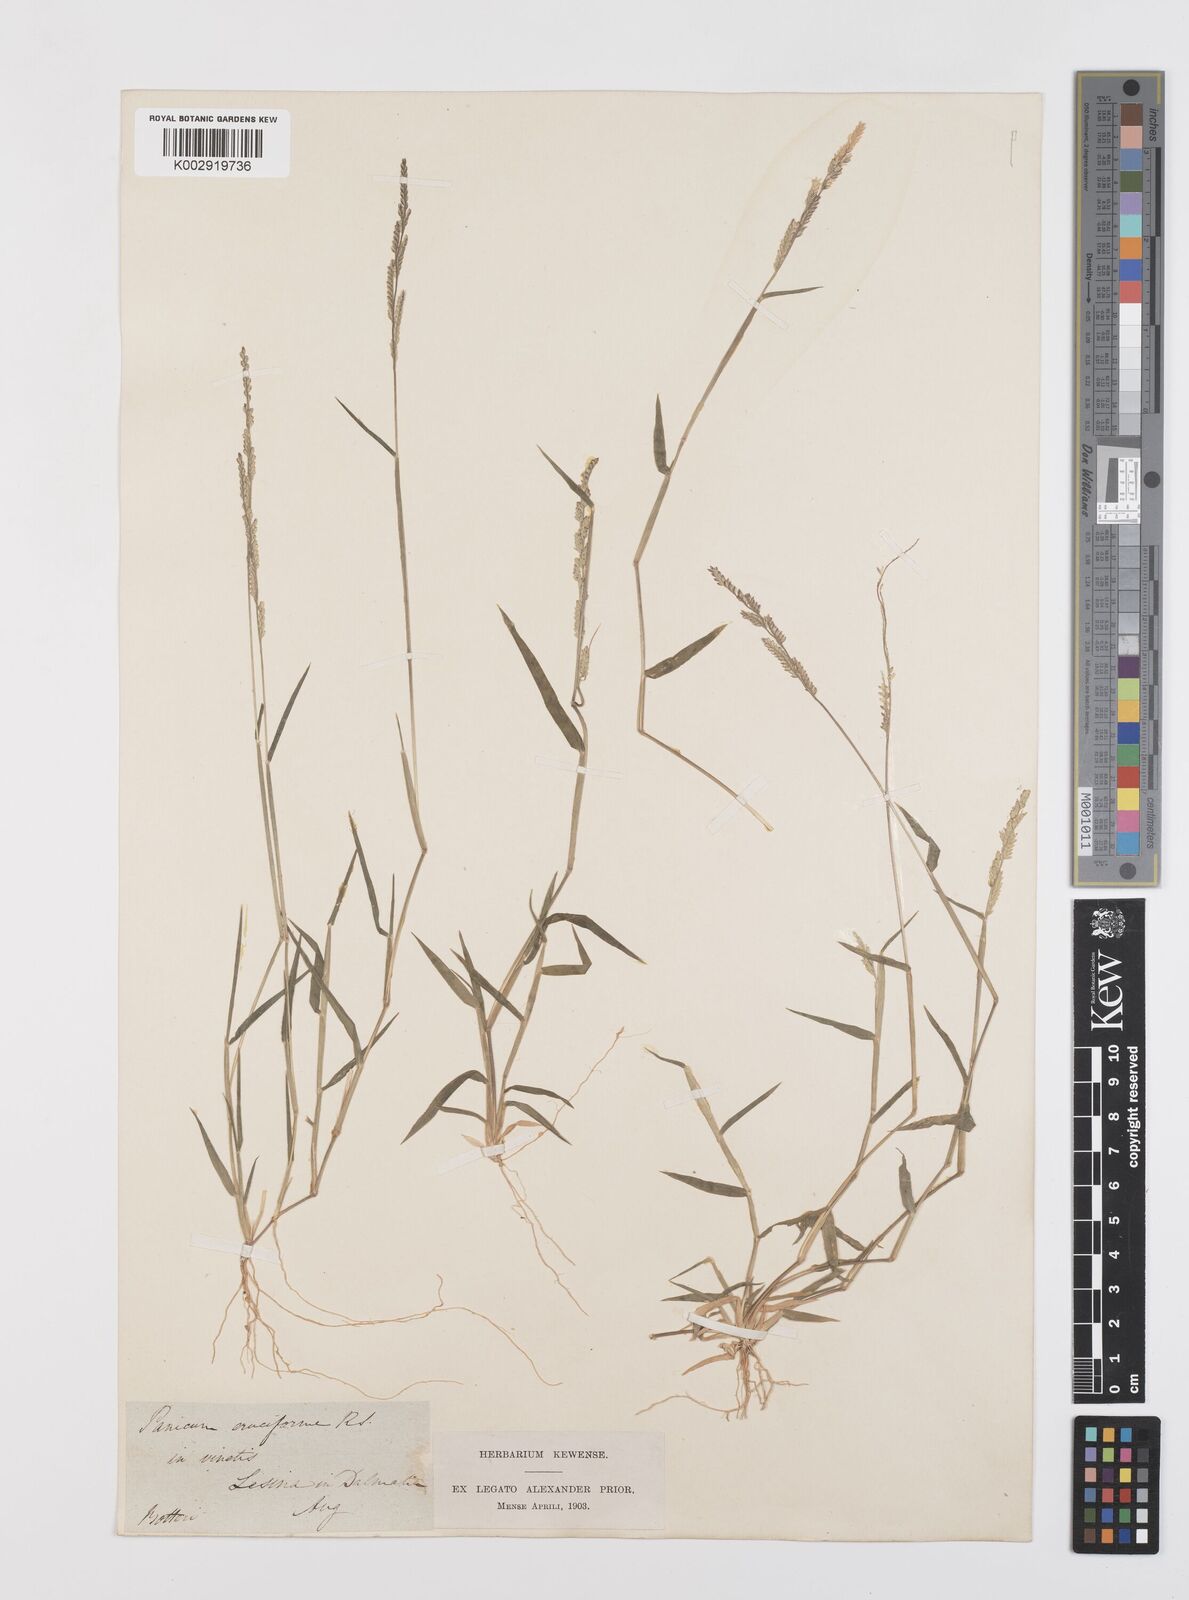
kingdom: Plantae
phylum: Tracheophyta
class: Liliopsida
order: Poales
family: Poaceae
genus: Moorochloa
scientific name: Moorochloa eruciformis
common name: Sweet signalgrass
